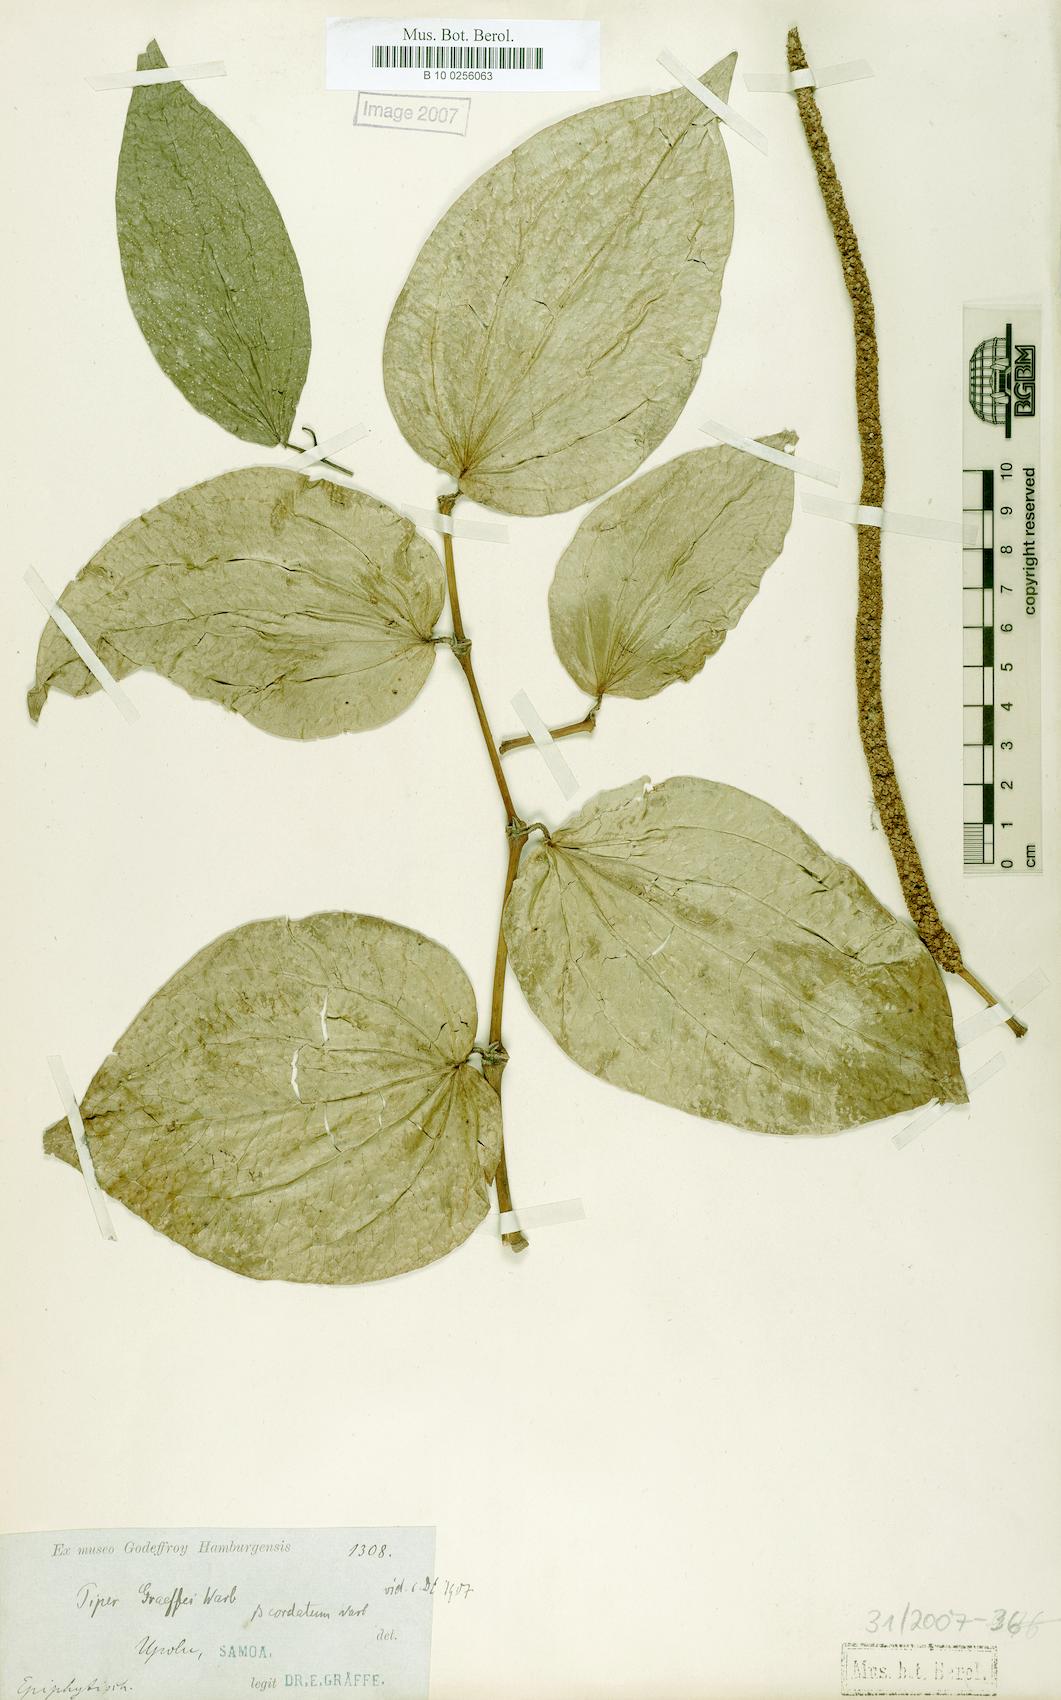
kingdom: Plantae
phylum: Tracheophyta
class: Magnoliopsida
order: Piperales
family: Piperaceae
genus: Piper
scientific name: Piper graeffei
